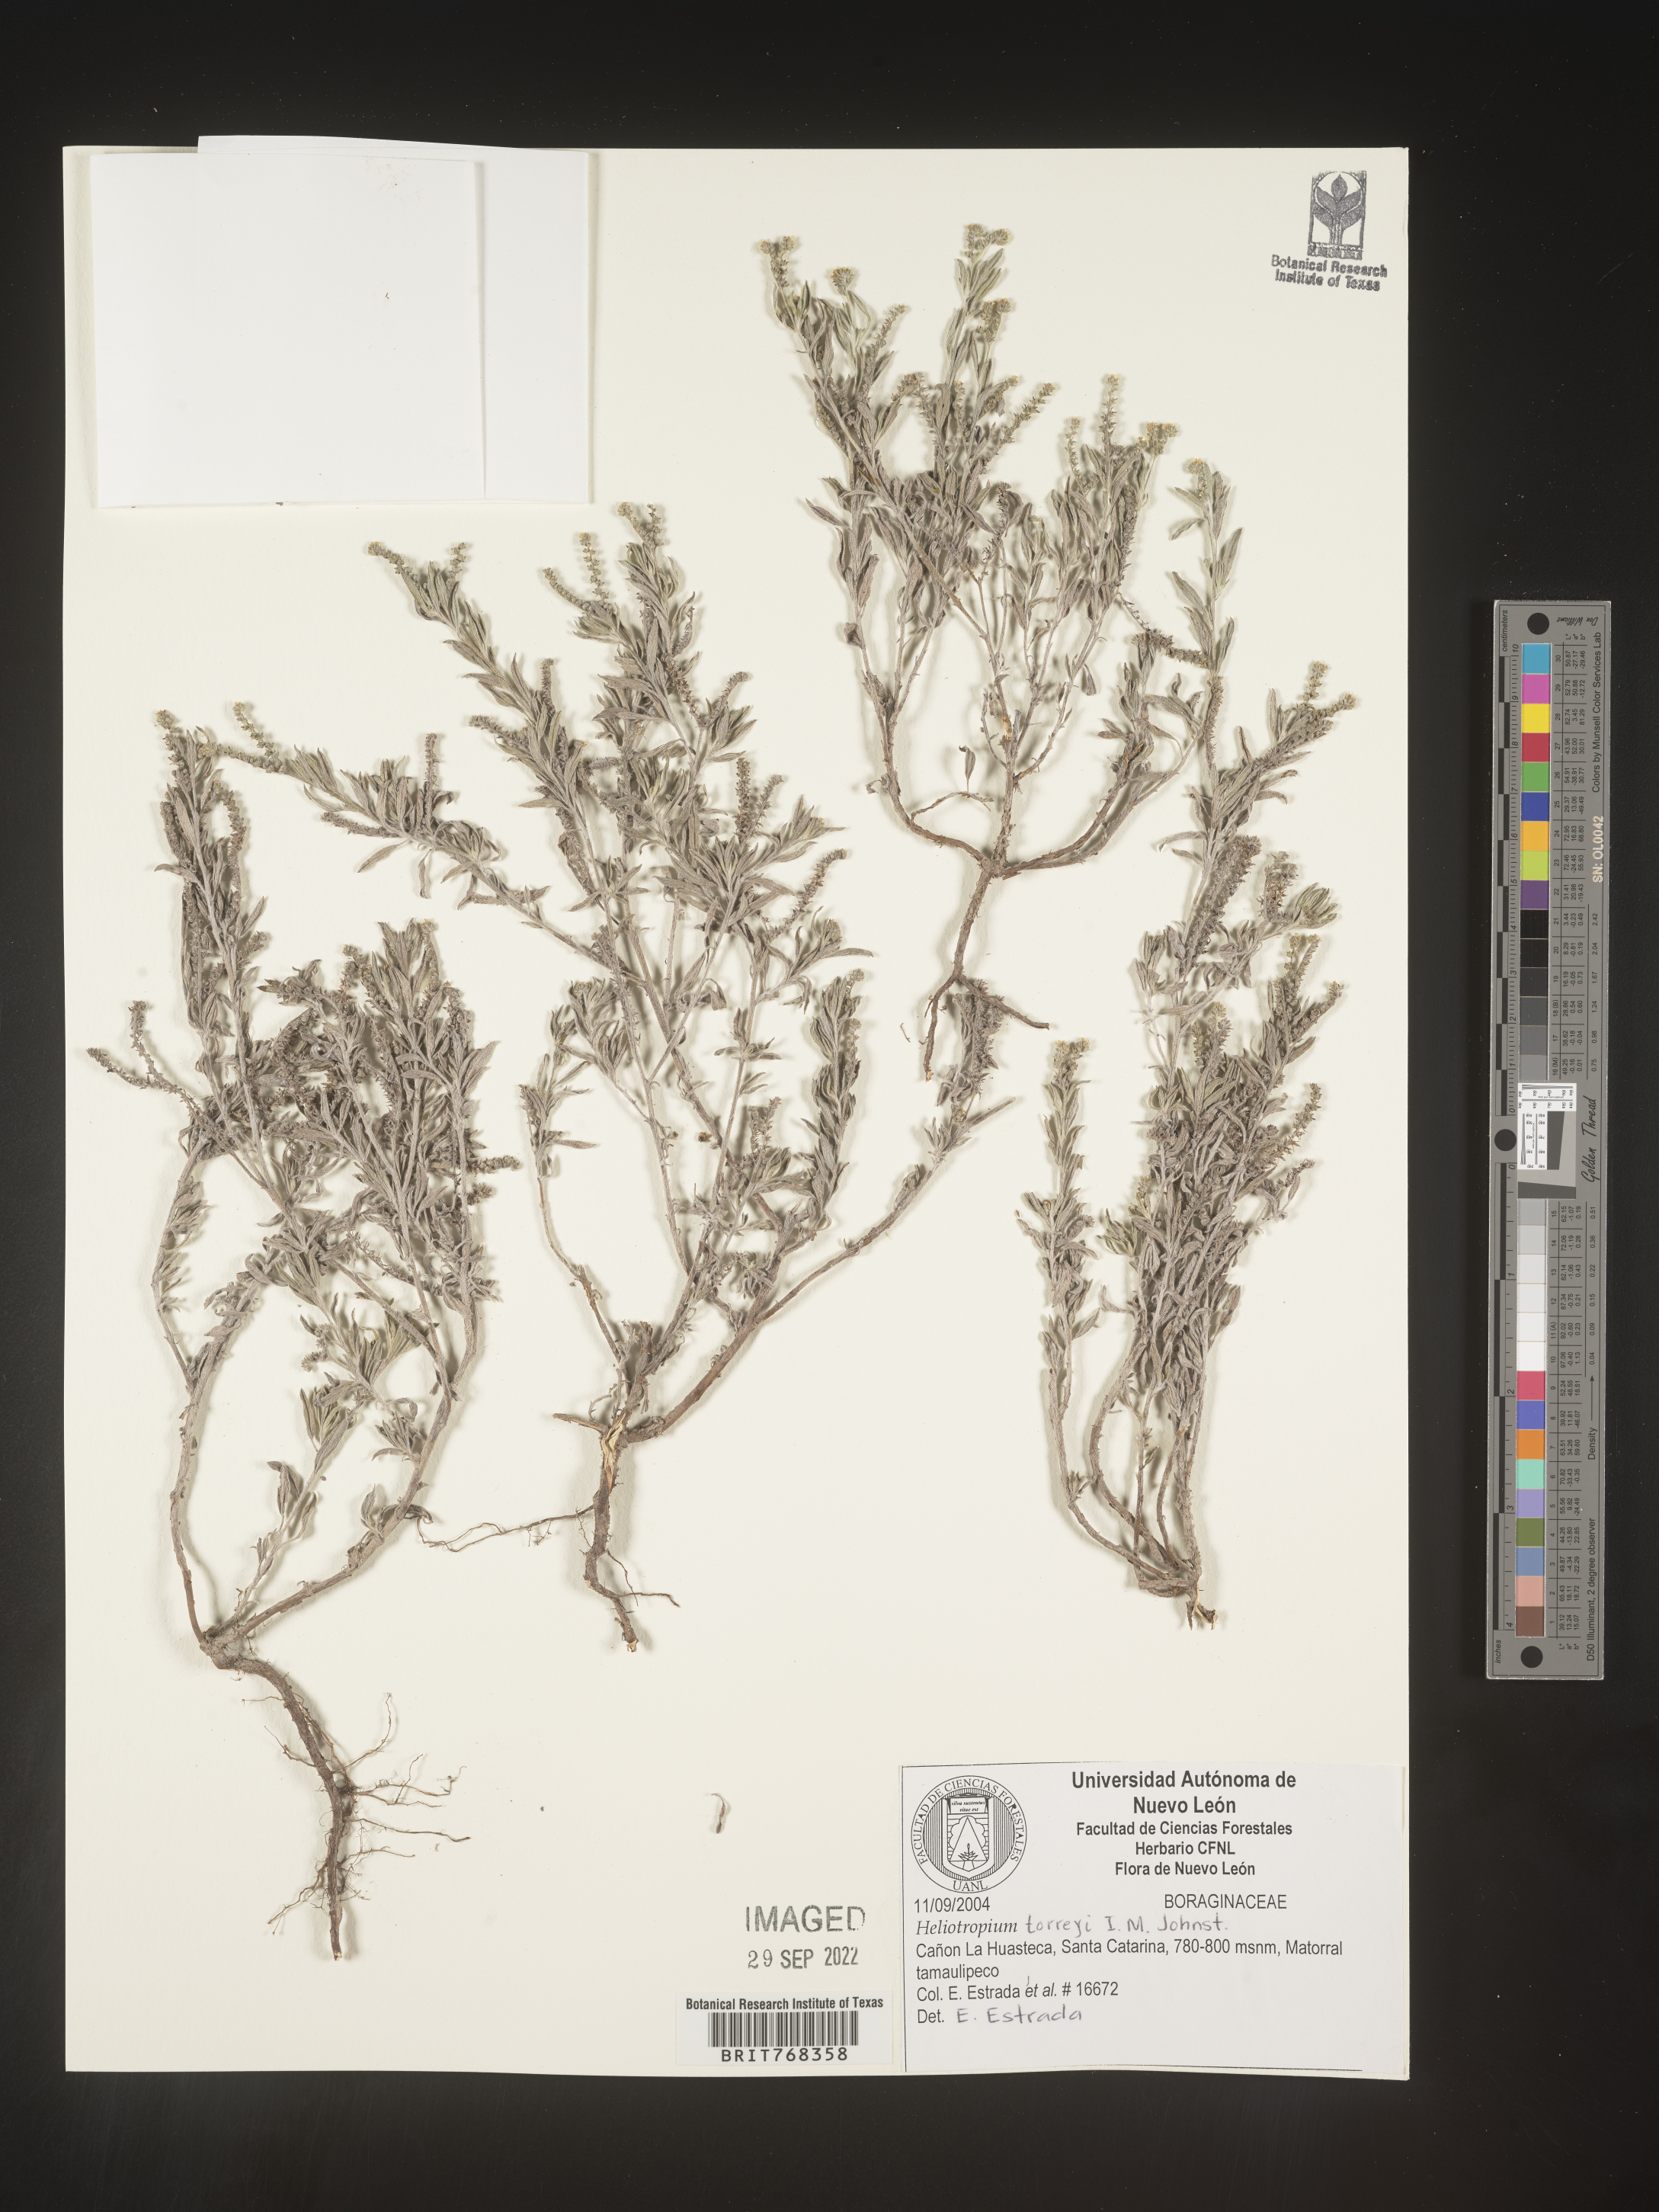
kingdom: Plantae
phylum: Tracheophyta
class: Magnoliopsida
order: Boraginales
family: Heliotropiaceae
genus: Heliotropium
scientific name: Heliotropium
